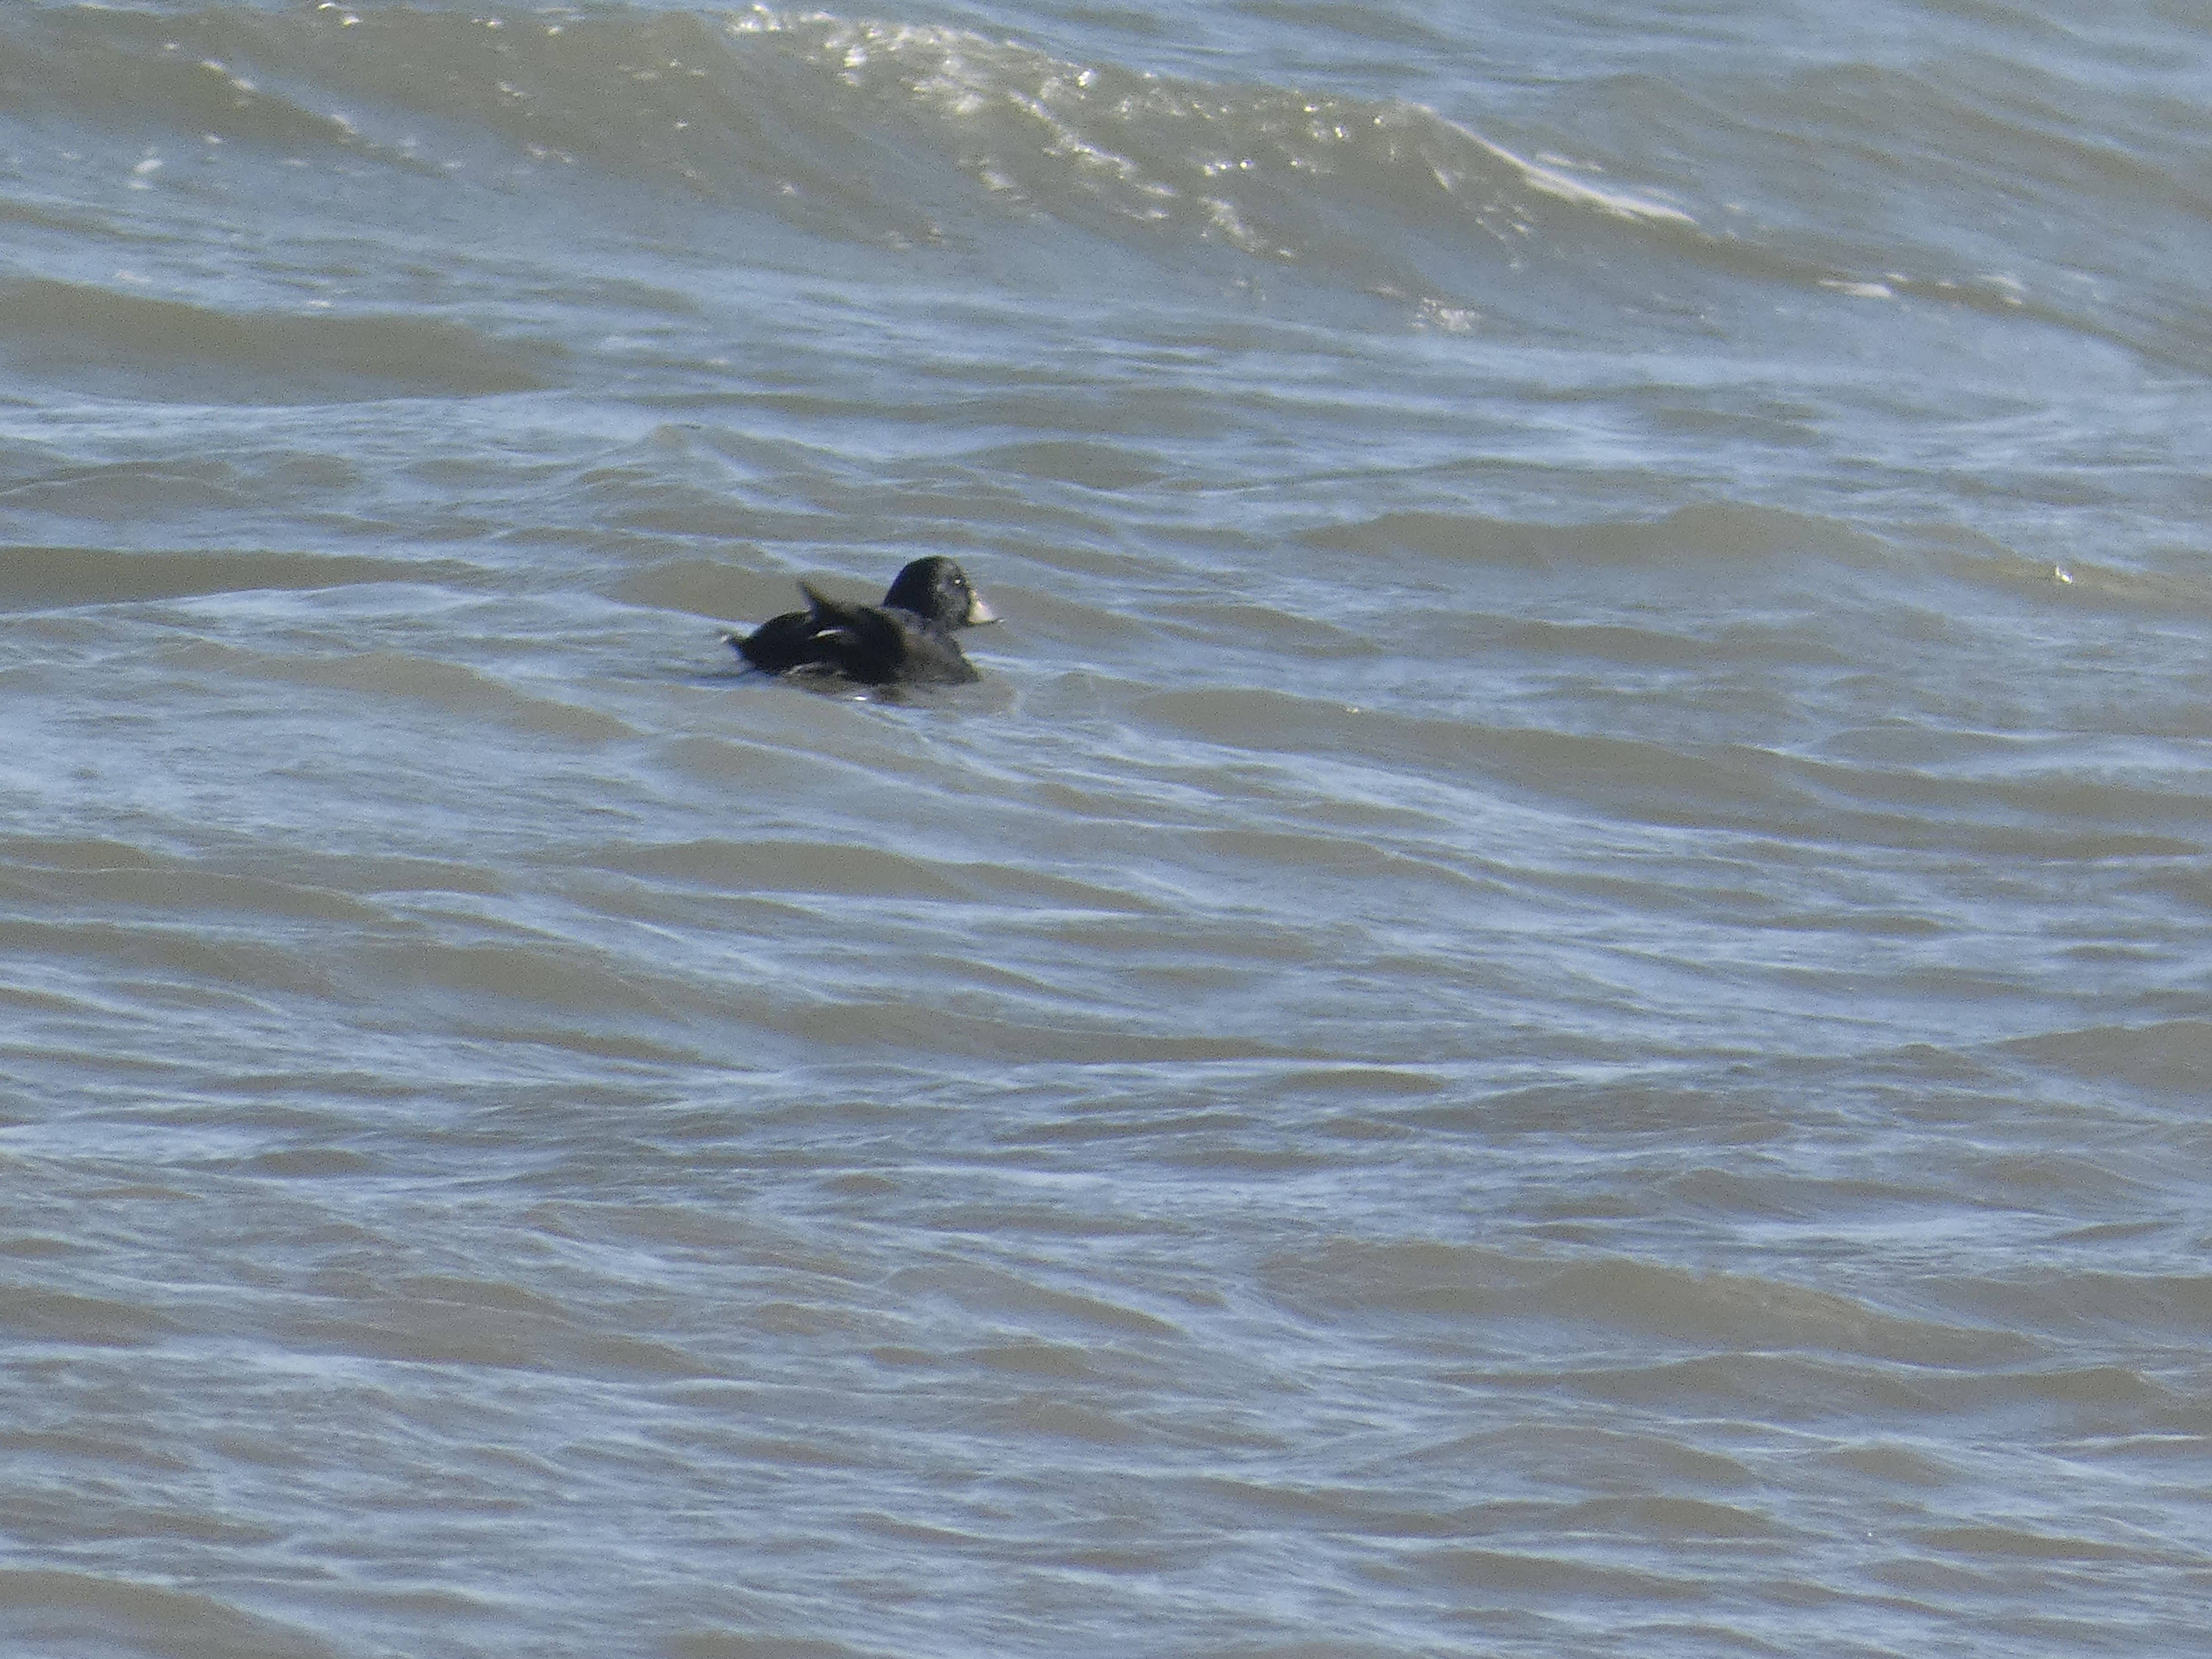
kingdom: Animalia
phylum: Chordata
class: Aves
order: Anseriformes
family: Anatidae
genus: Melanitta
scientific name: Melanitta nigra
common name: Sortand
